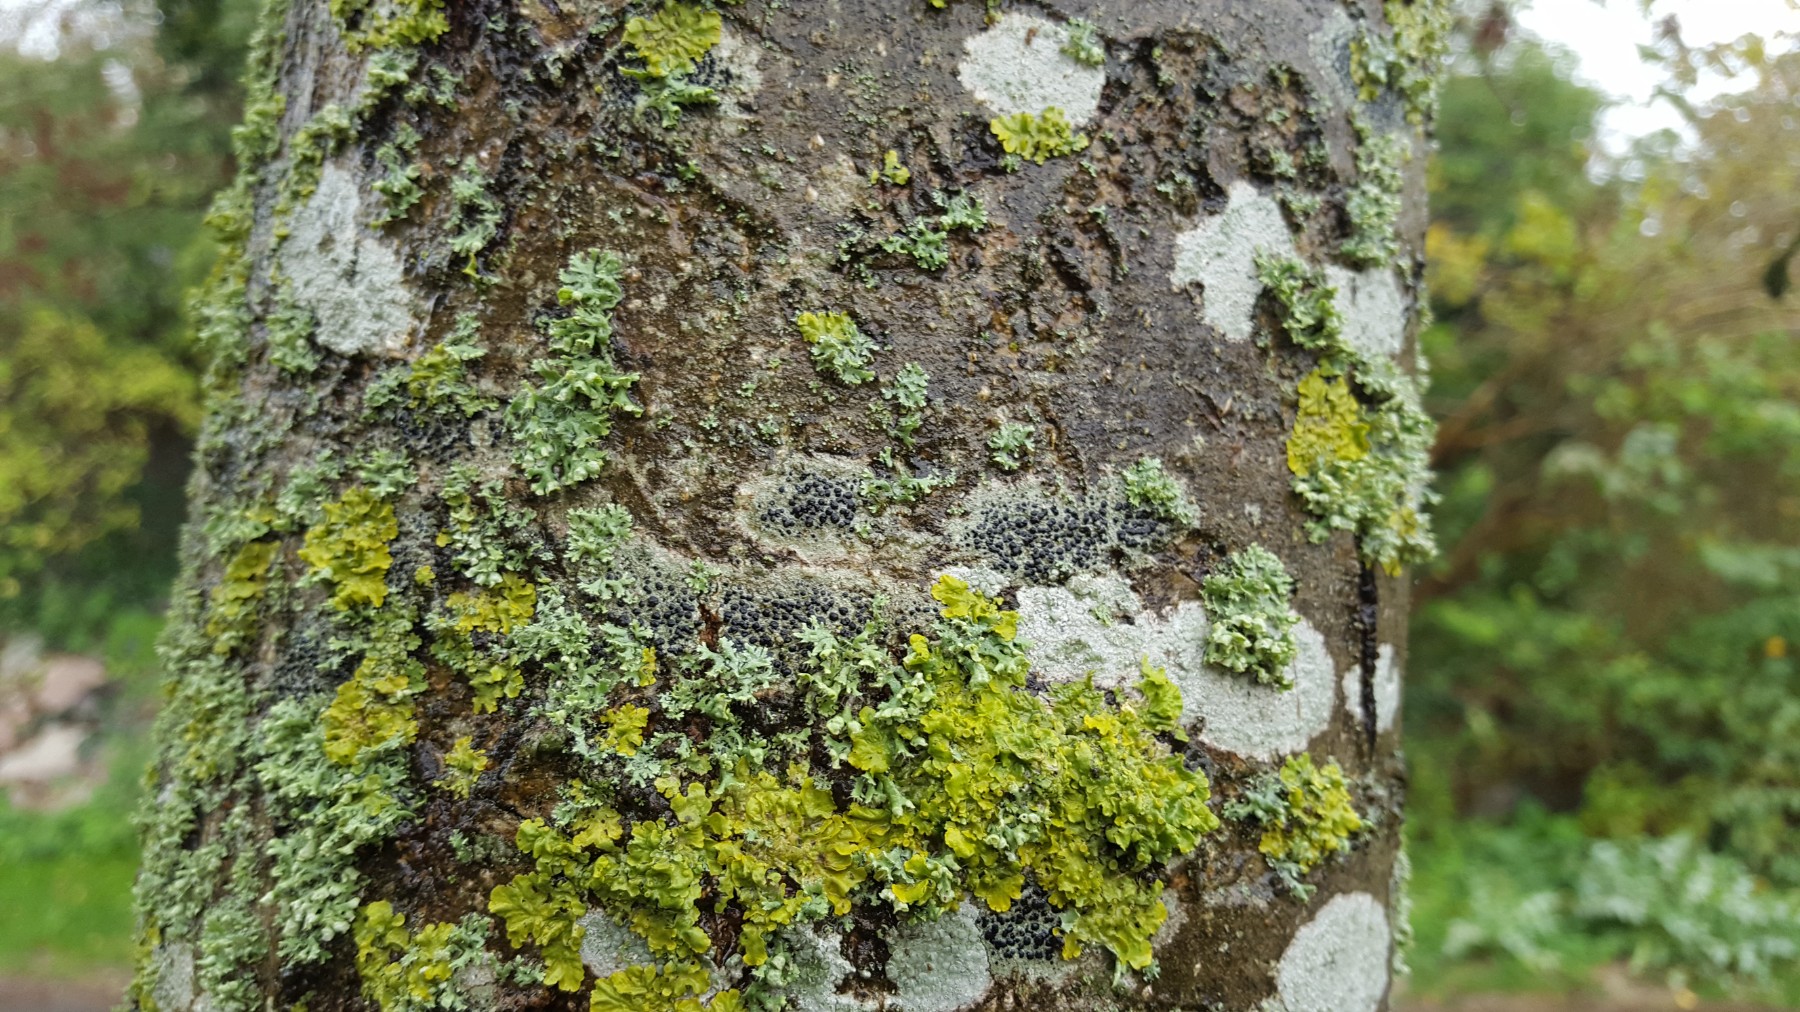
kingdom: Fungi
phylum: Ascomycota
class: Lecanoromycetes
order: Lecanorales
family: Lecanoraceae
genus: Lecidella
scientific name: Lecidella elaeochroma
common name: grågrøn skivelav
